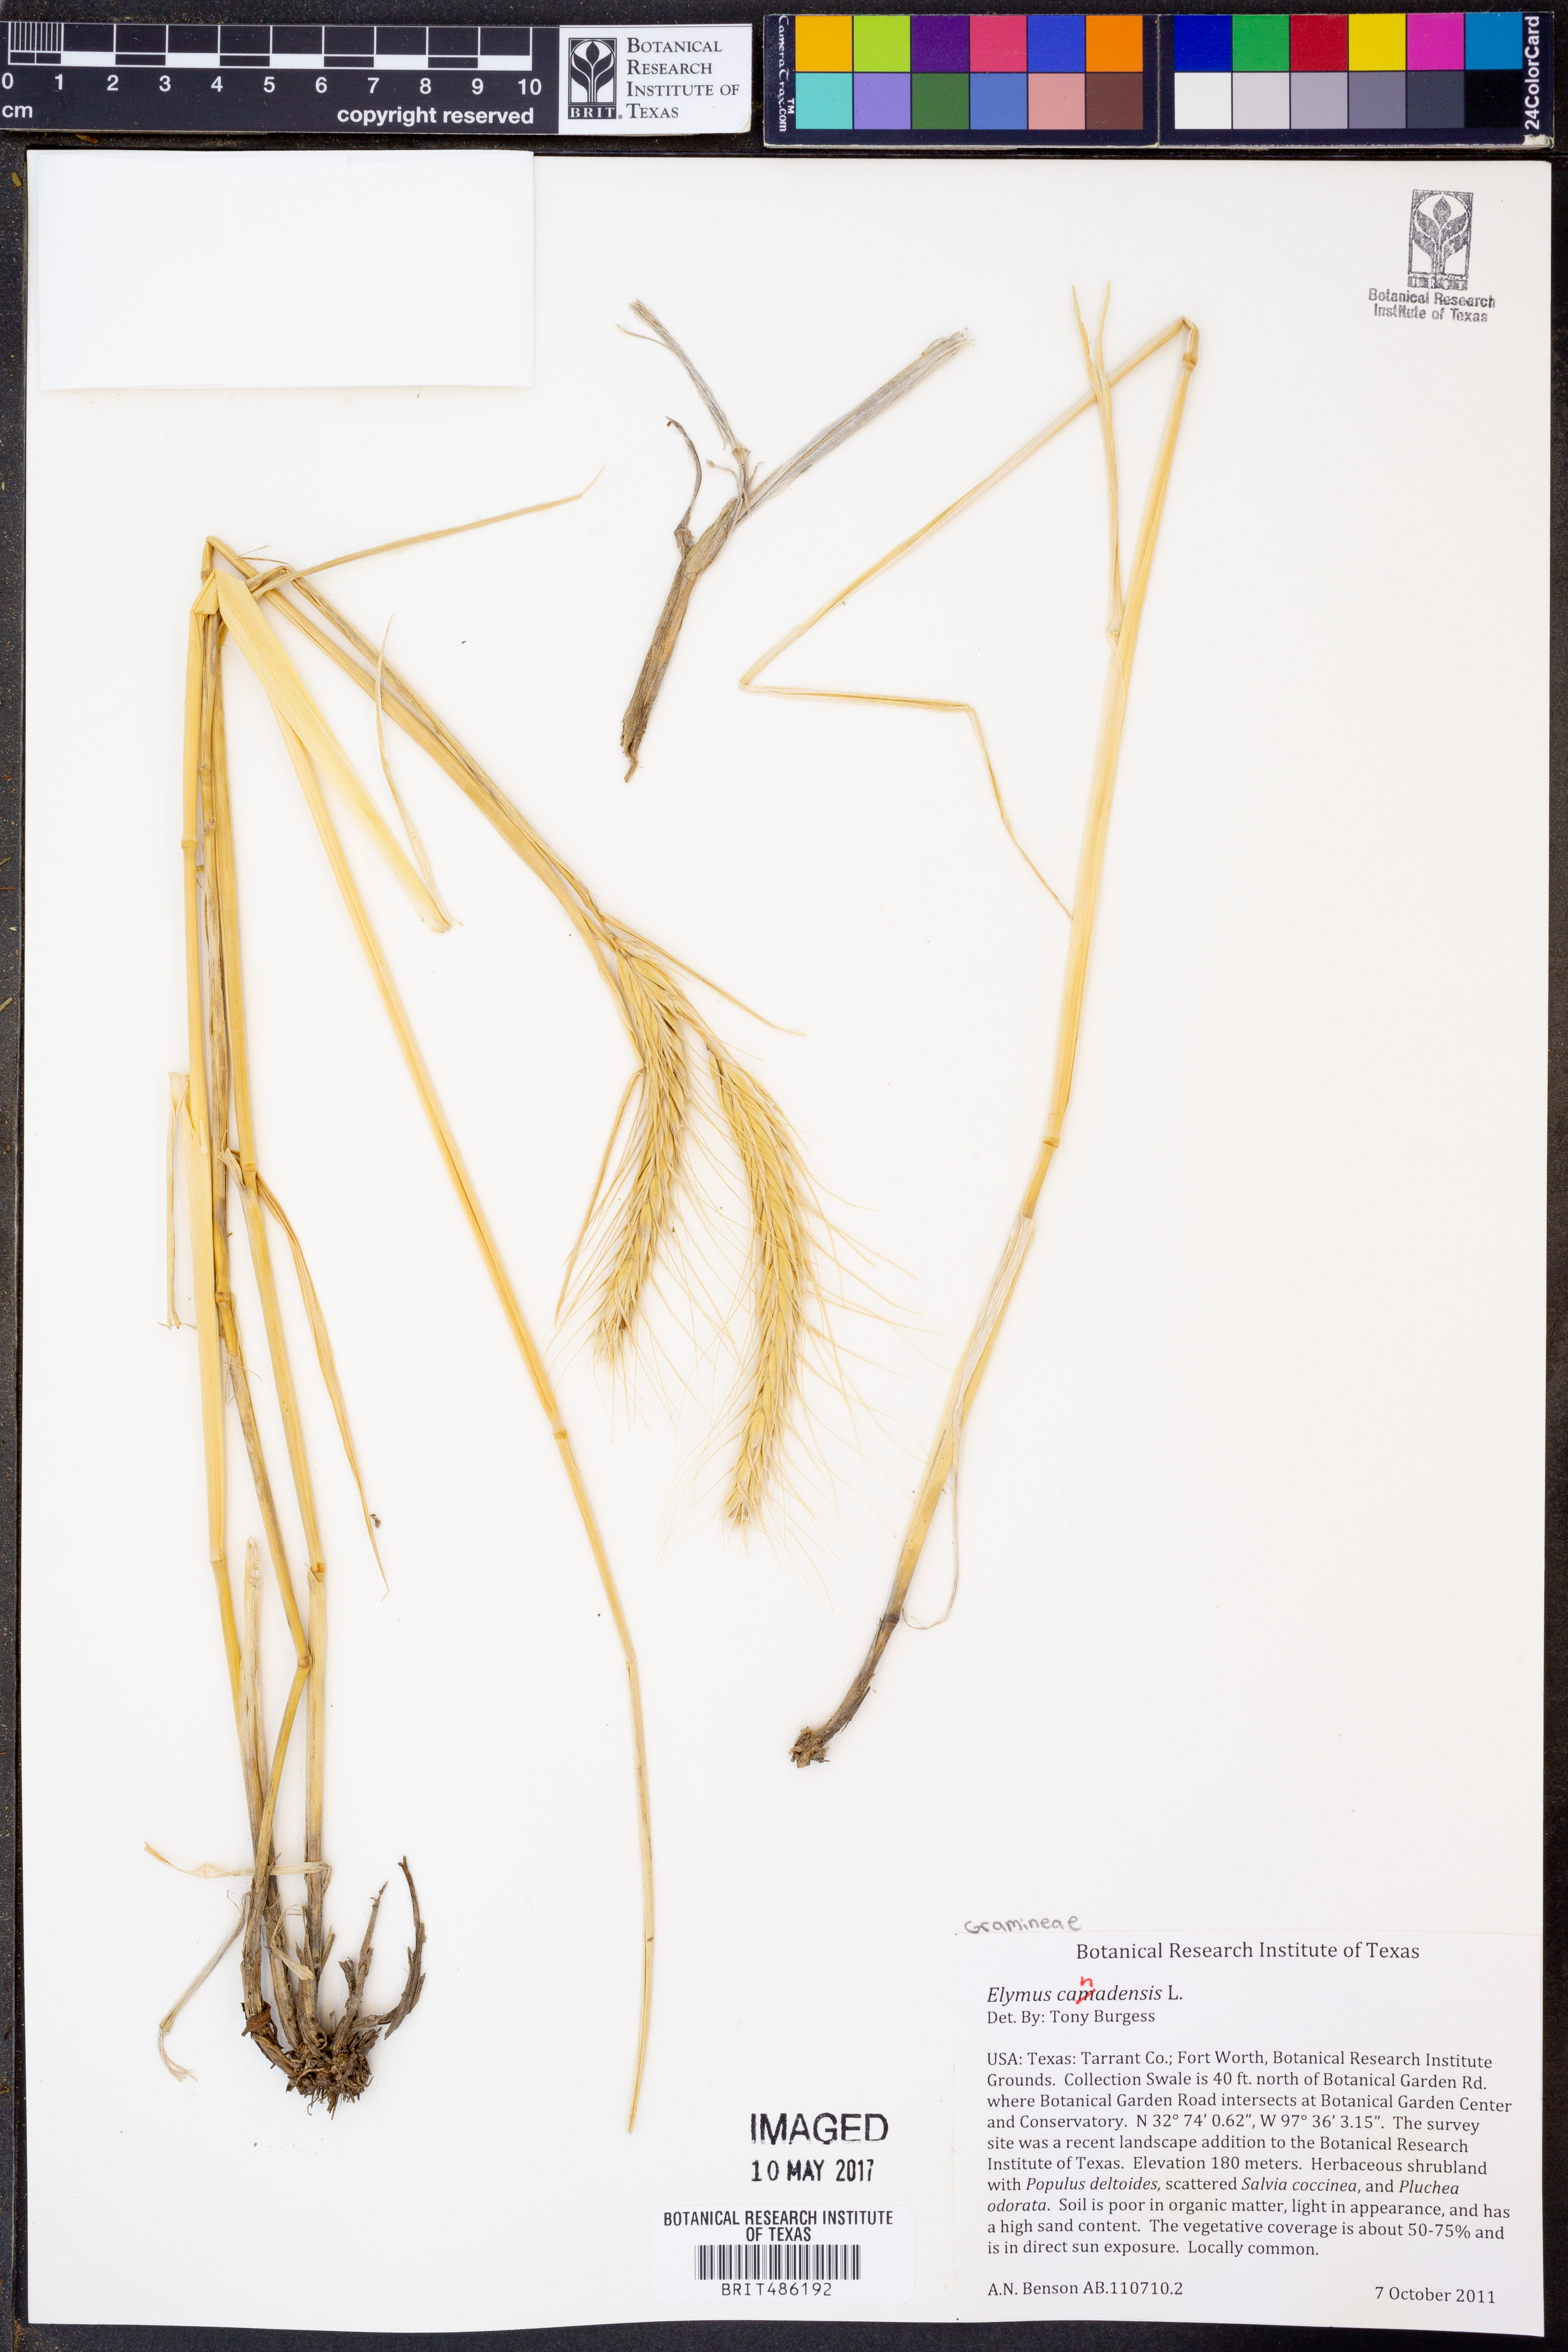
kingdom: Plantae
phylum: Tracheophyta
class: Liliopsida
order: Poales
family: Poaceae
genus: Elymus
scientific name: Elymus canadensis
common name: Canada wild rye
